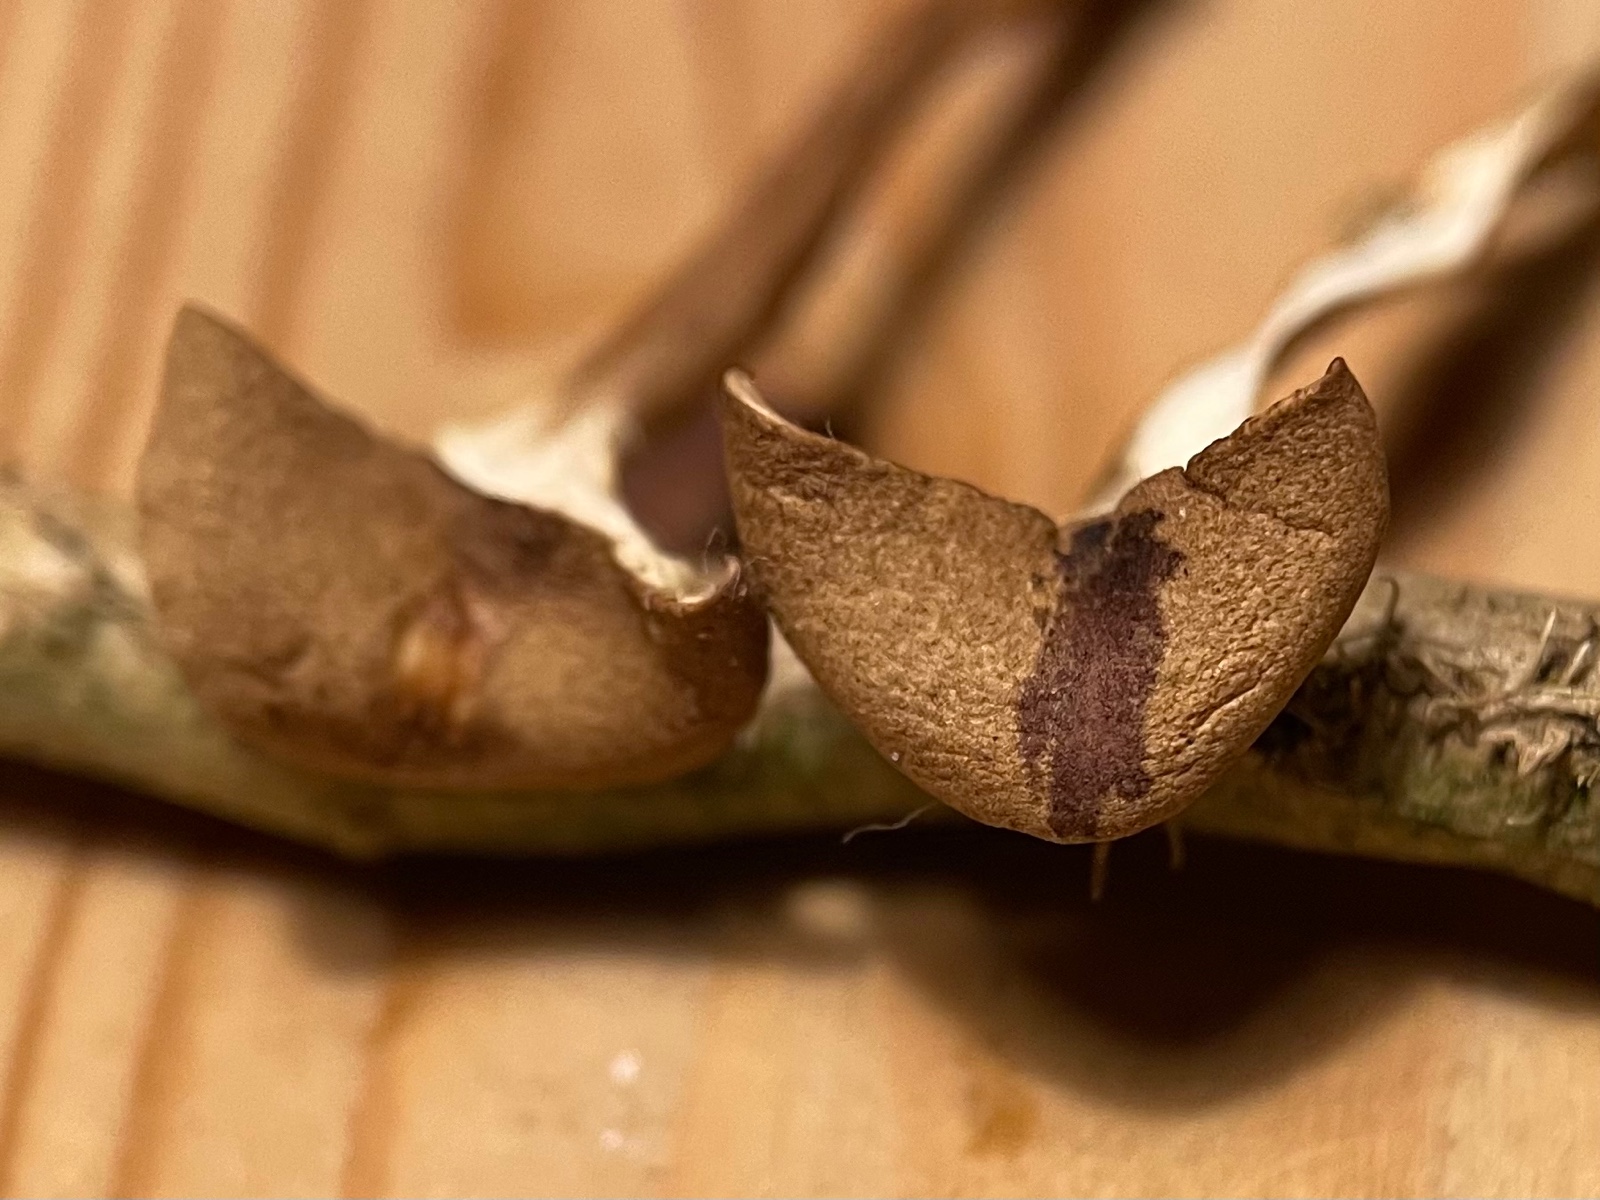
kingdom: Fungi
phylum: Basidiomycota
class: Agaricomycetes
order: Agaricales
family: Tricholomataceae
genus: Infundibulicybe
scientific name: Infundibulicybe squamulosa
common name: småskællet tragthat
